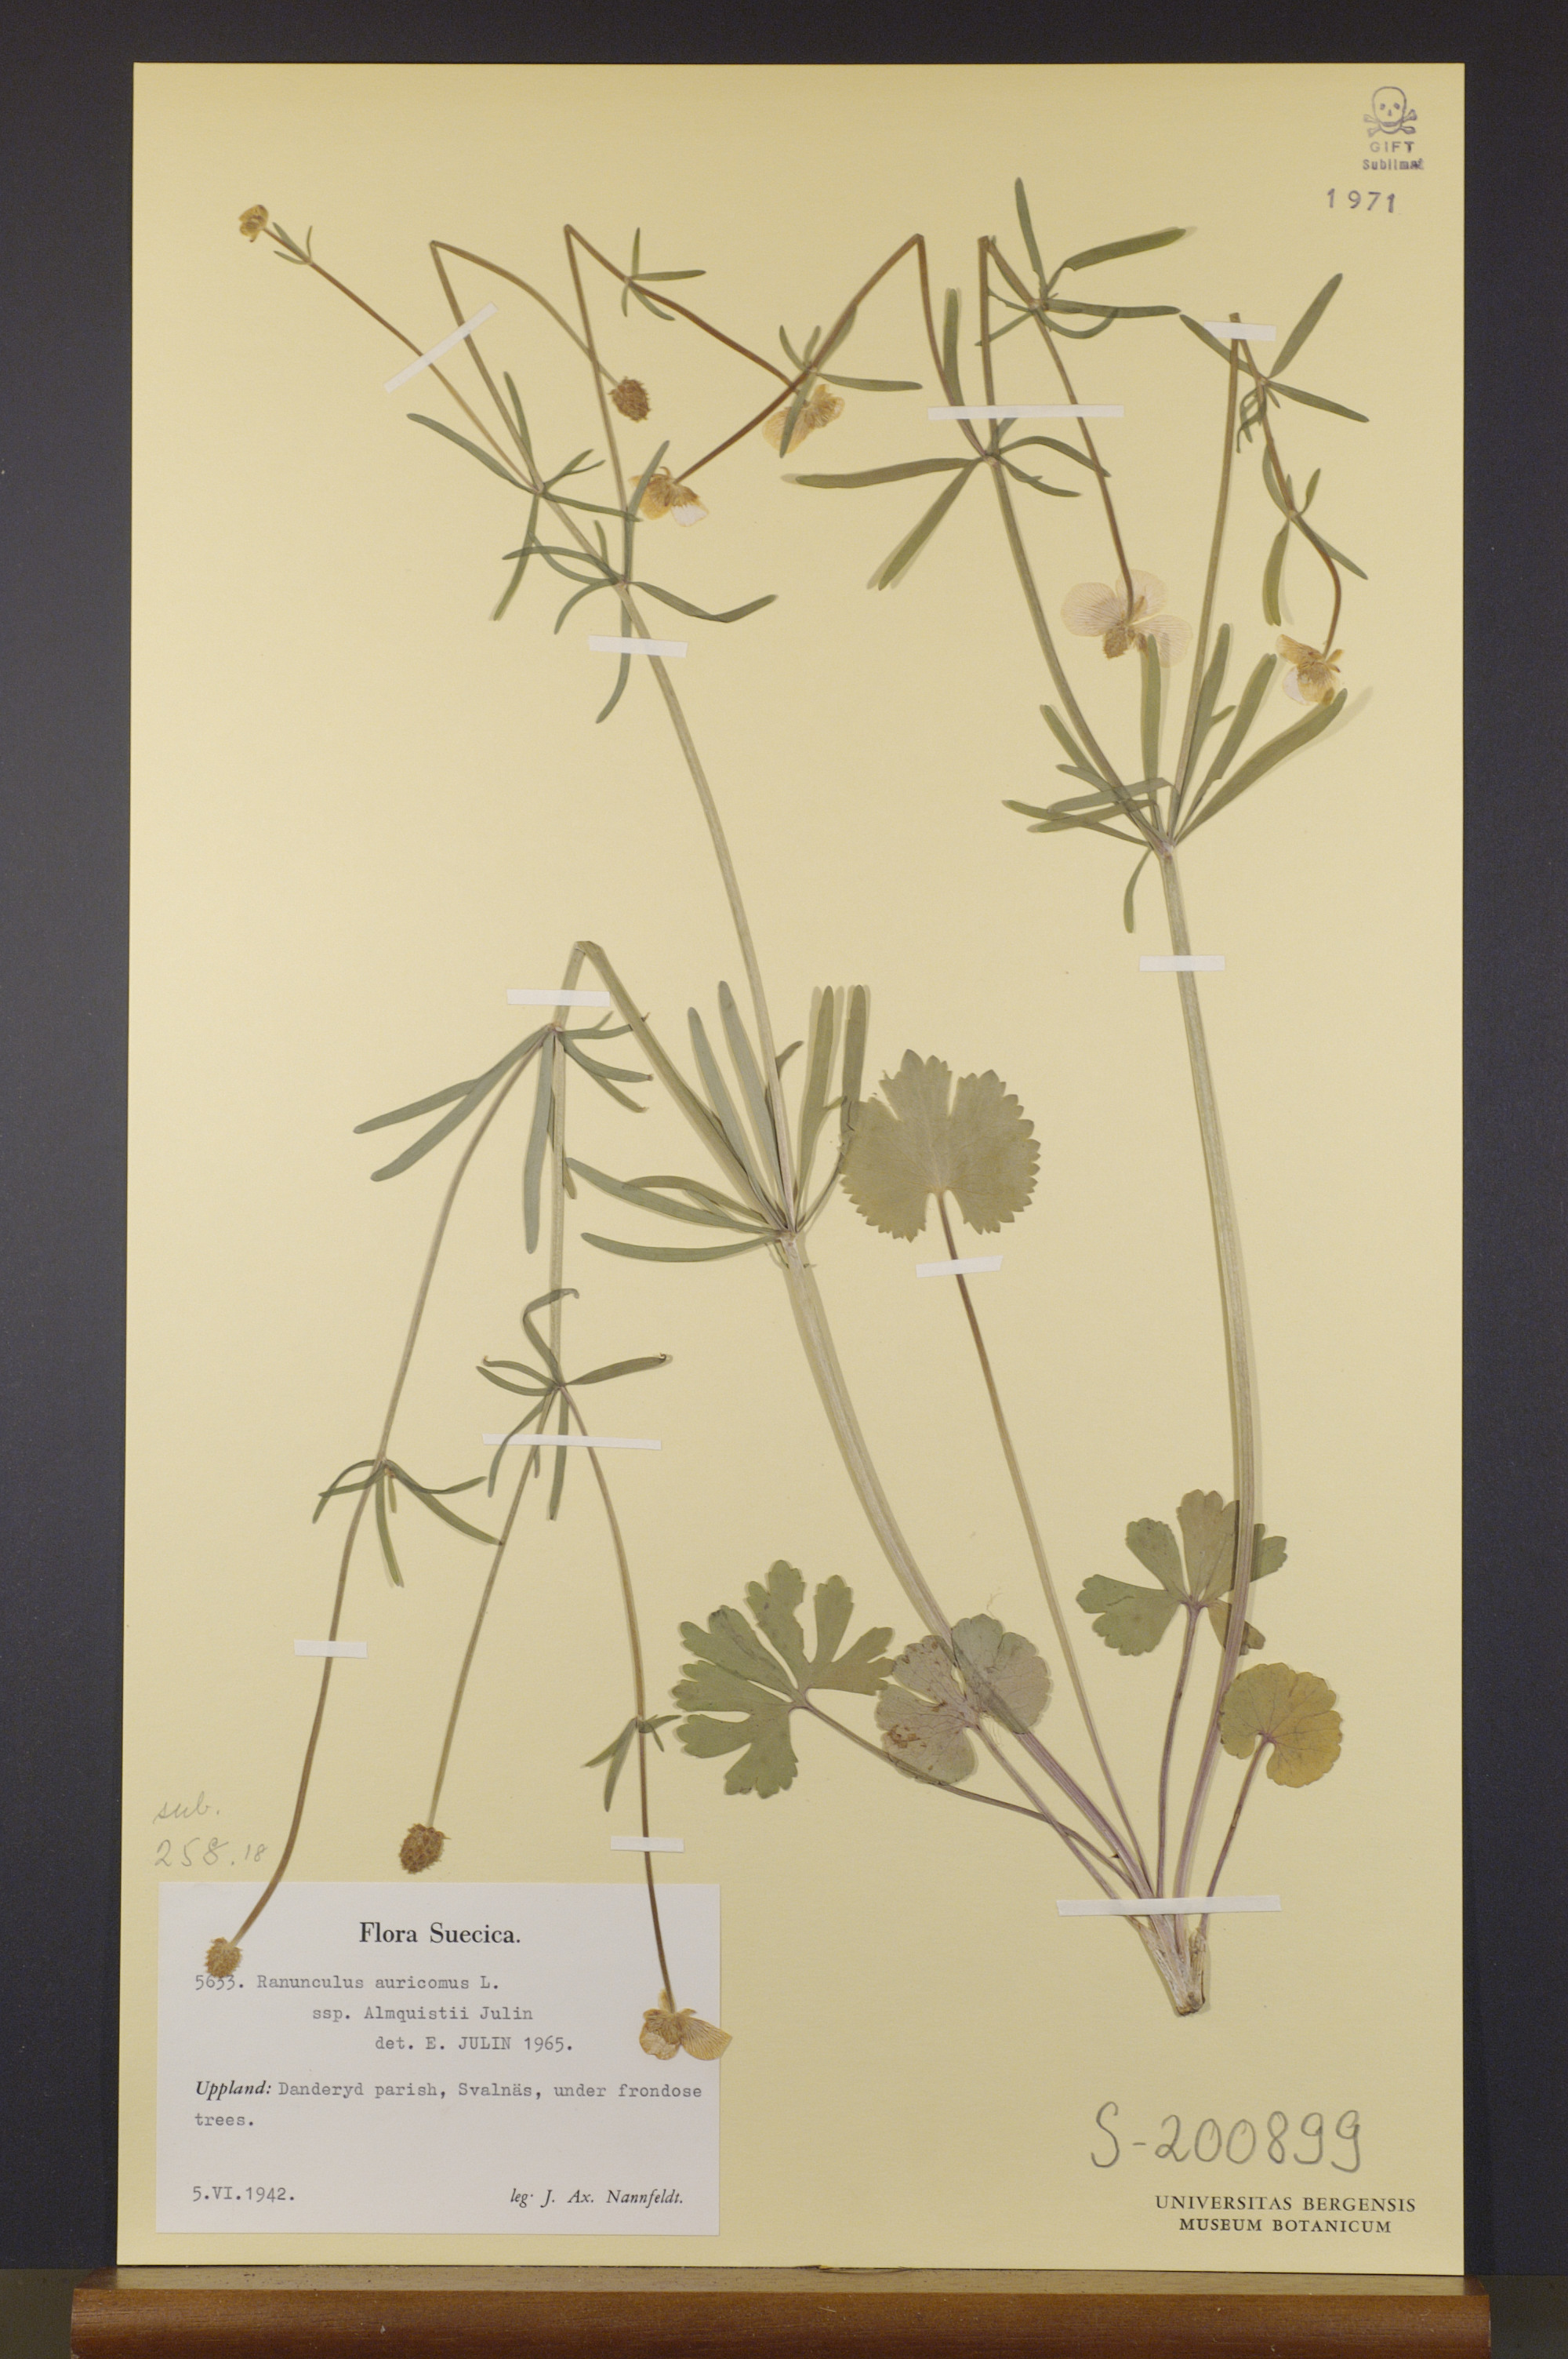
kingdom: Plantae
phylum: Tracheophyta
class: Magnoliopsida
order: Ranunculales
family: Ranunculaceae
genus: Ranunculus
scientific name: Ranunculus almquistii
